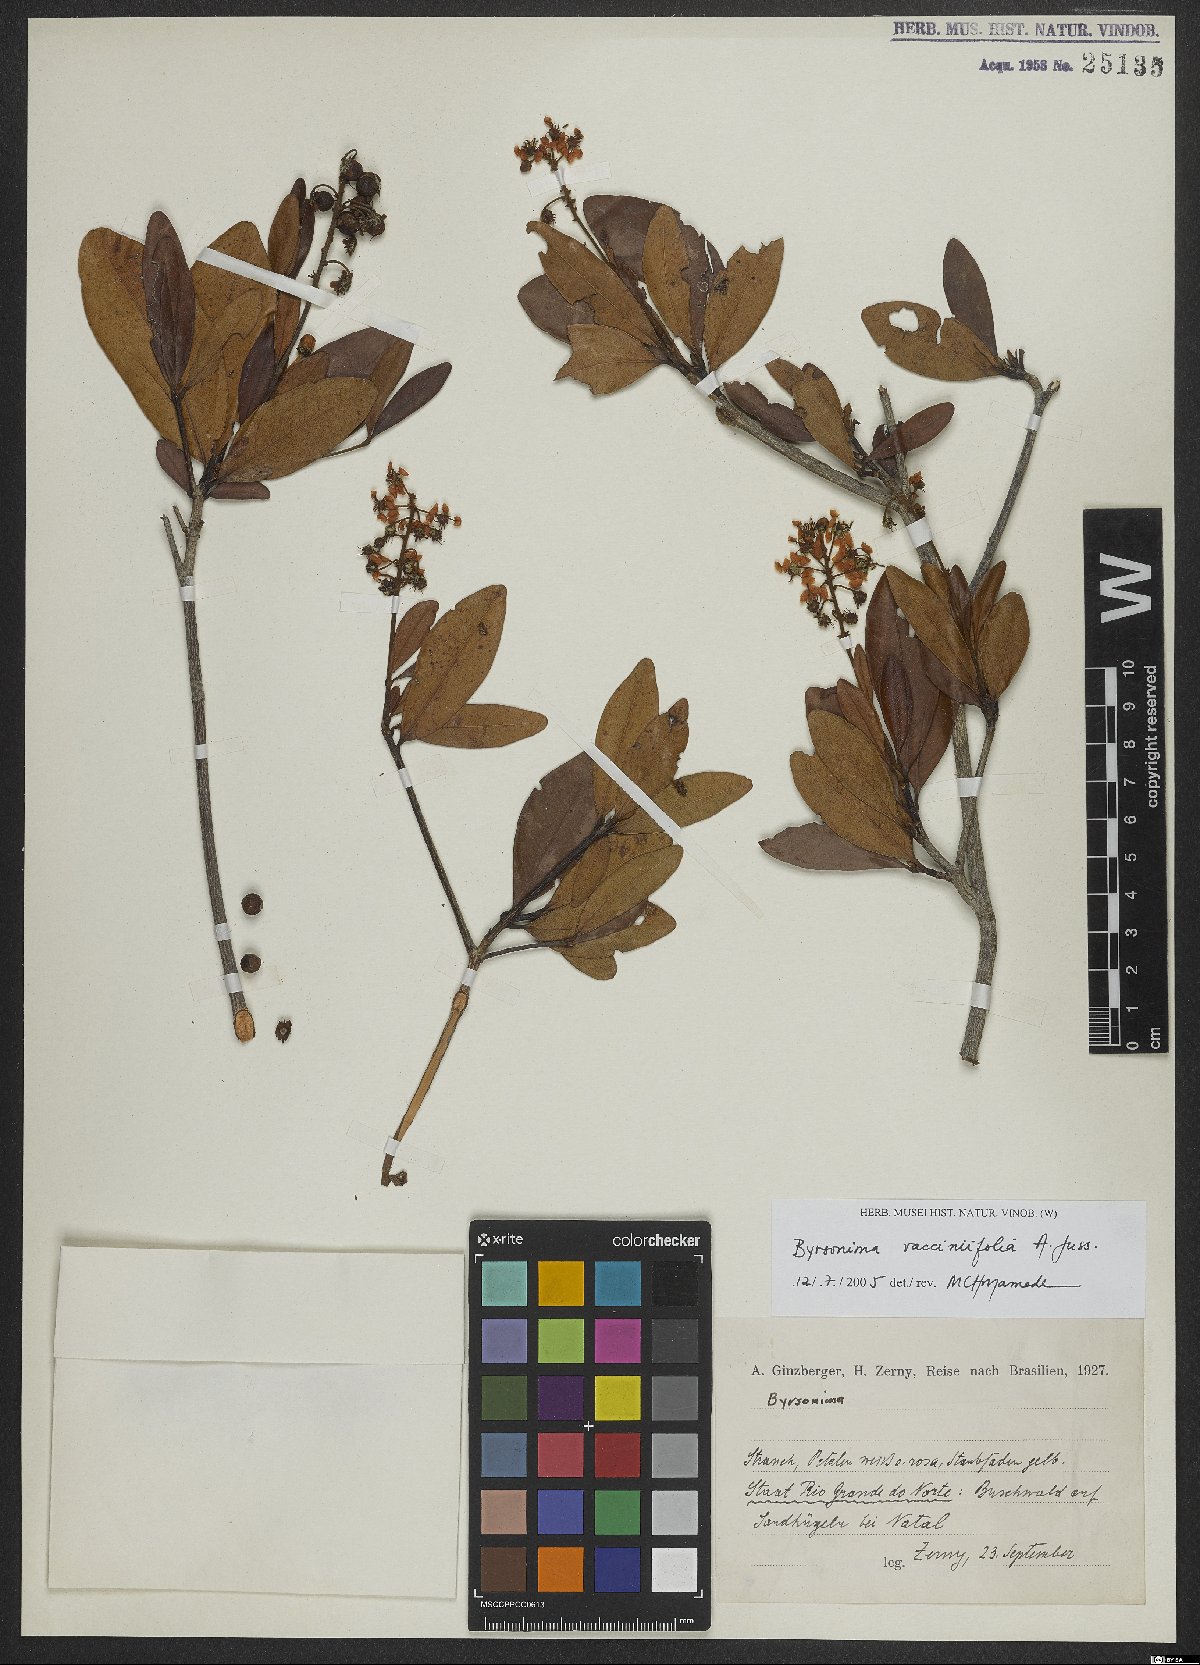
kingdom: Plantae
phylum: Tracheophyta
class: Magnoliopsida
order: Malpighiales
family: Malpighiaceae
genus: Byrsonima
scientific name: Byrsonima vacciniifolia
